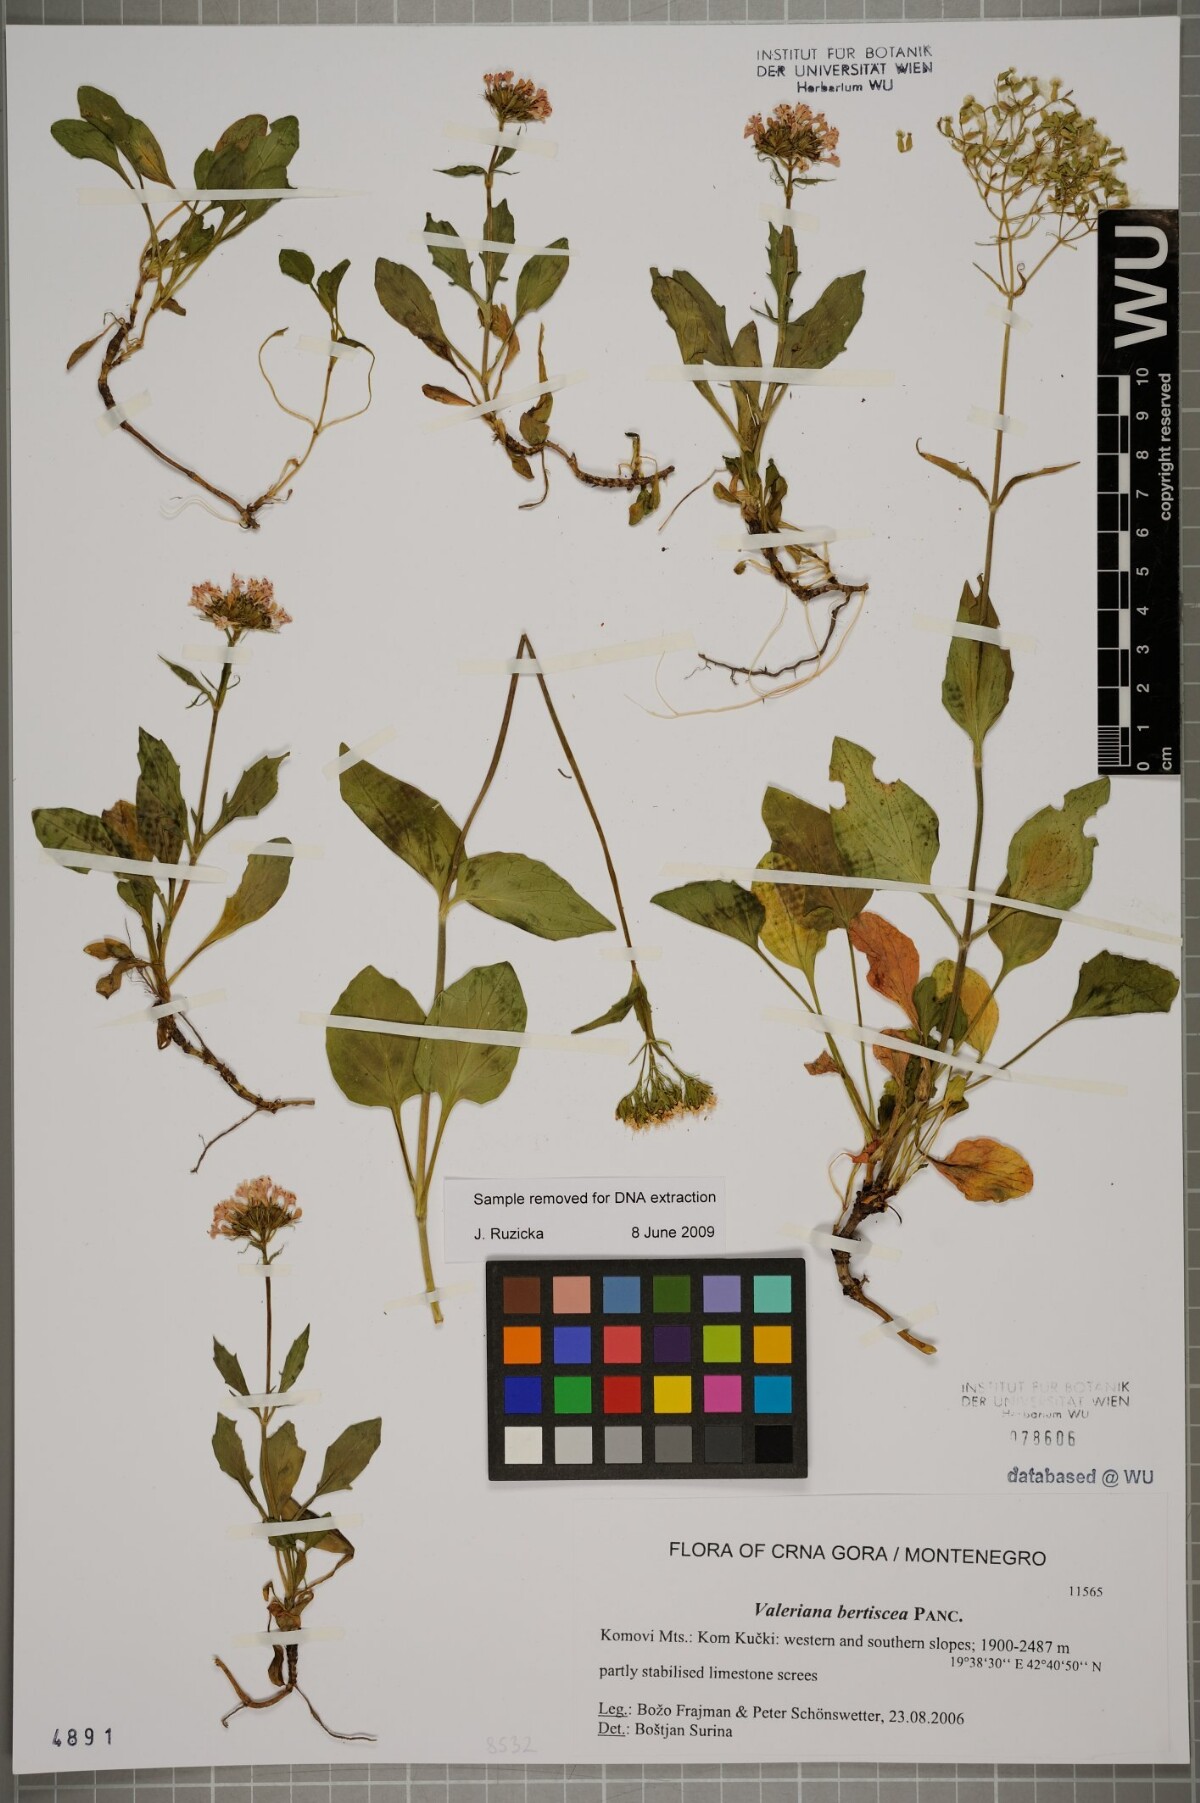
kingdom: Plantae
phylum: Tracheophyta
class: Magnoliopsida
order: Dipsacales
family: Caprifoliaceae
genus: Valeriana
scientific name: Valeriana bertiscea
